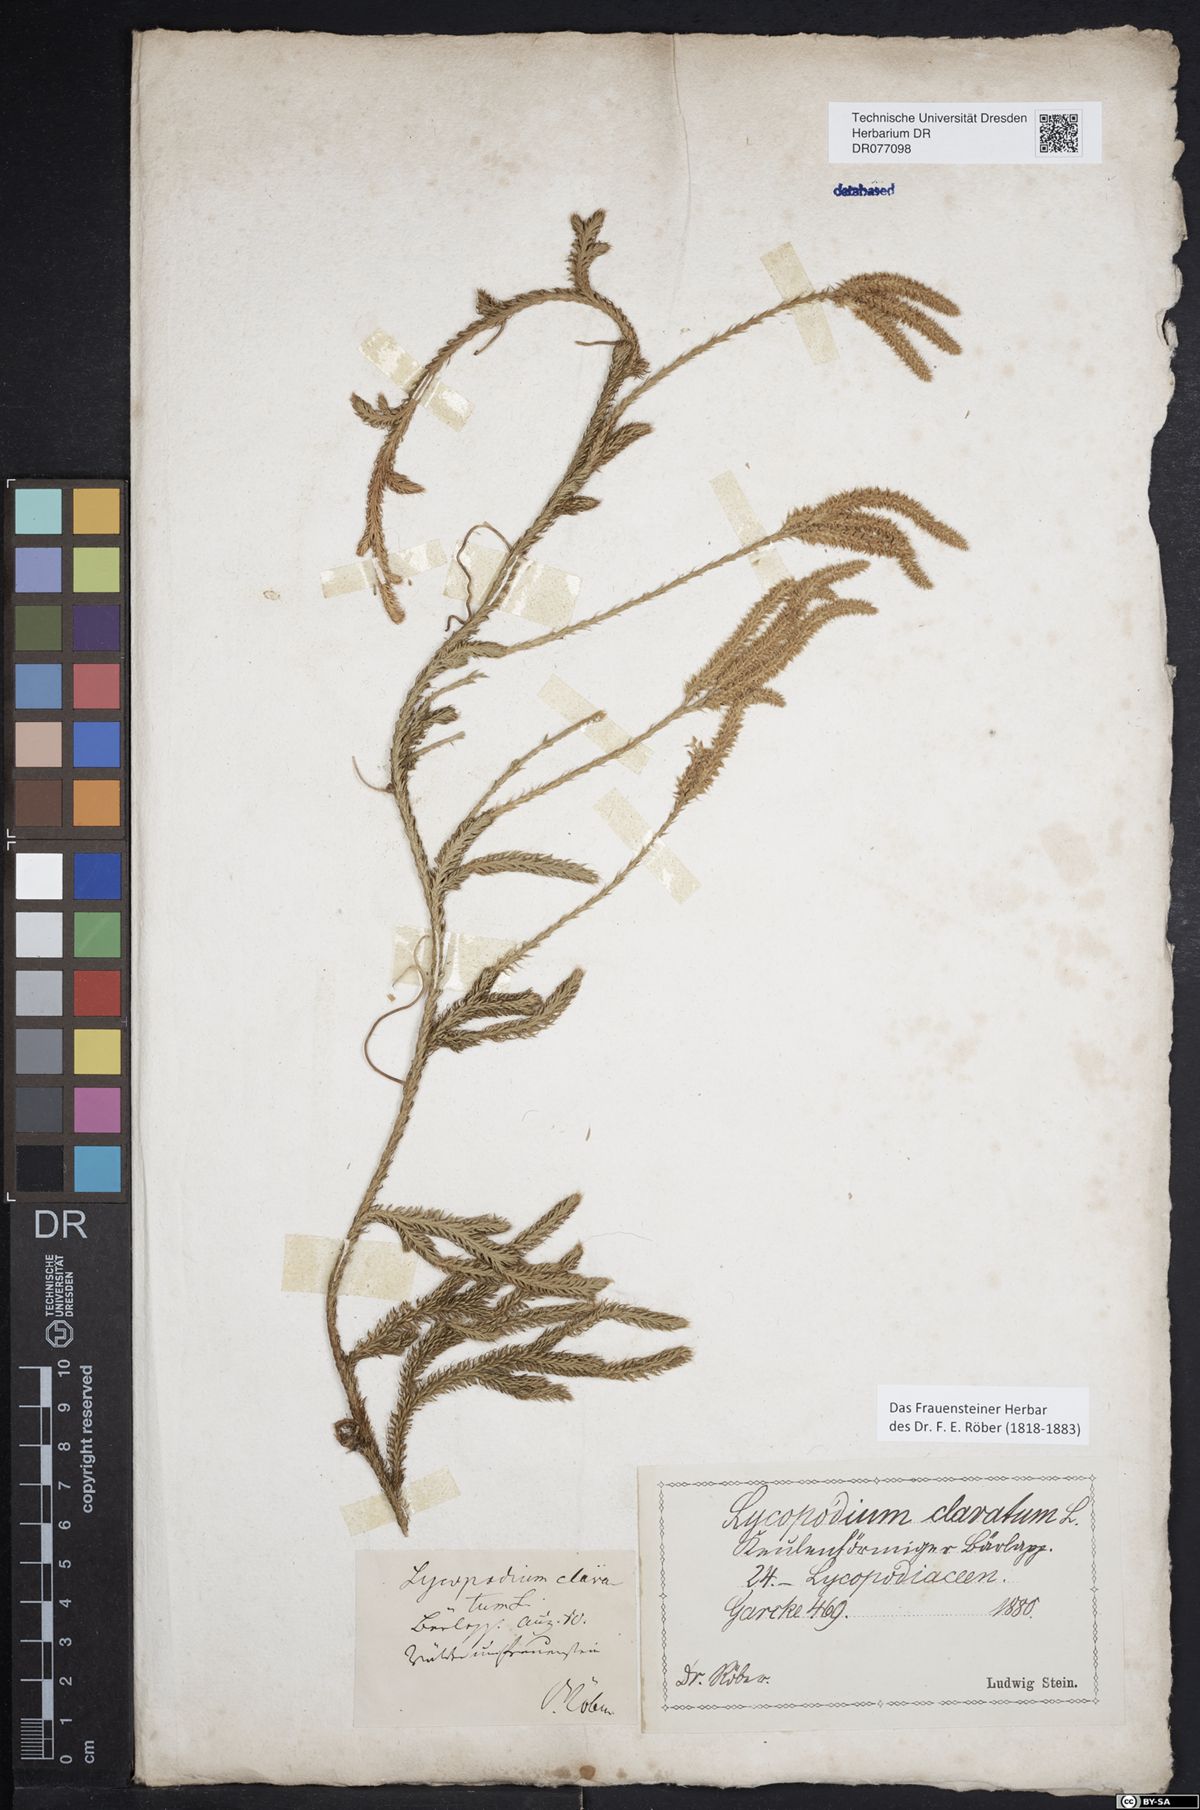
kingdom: Plantae
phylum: Tracheophyta
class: Lycopodiopsida
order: Lycopodiales
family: Lycopodiaceae
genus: Lycopodium
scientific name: Lycopodium clavatum
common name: Stag's-horn clubmoss
